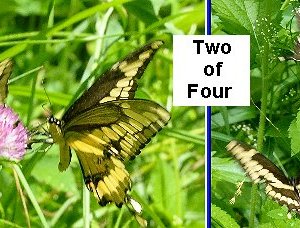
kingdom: Animalia
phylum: Arthropoda
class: Insecta
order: Lepidoptera
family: Papilionidae
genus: Papilio
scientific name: Papilio cresphontes
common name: Eastern Giant Swallowtail
